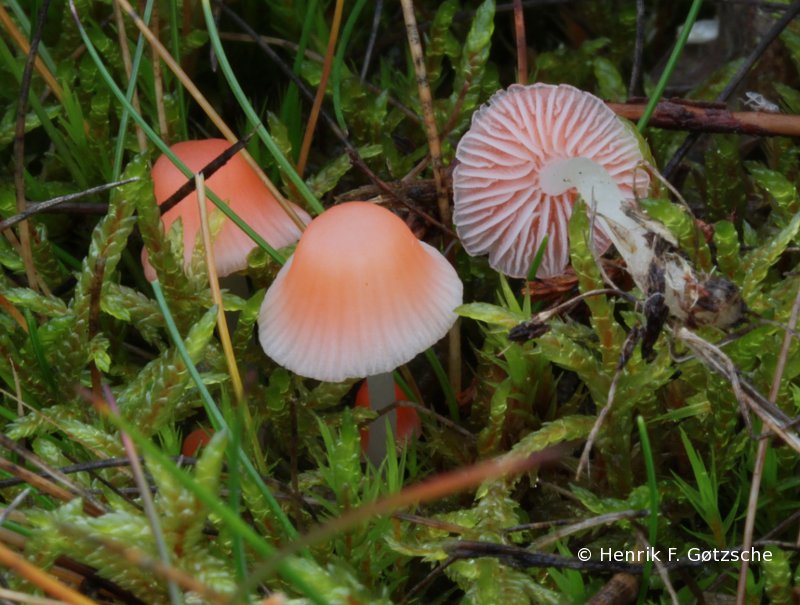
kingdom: Fungi
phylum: Basidiomycota
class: Agaricomycetes
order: Agaricales
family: Mycenaceae
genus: Atheniella
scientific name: Atheniella adonis
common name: rønnerød huesvamp
